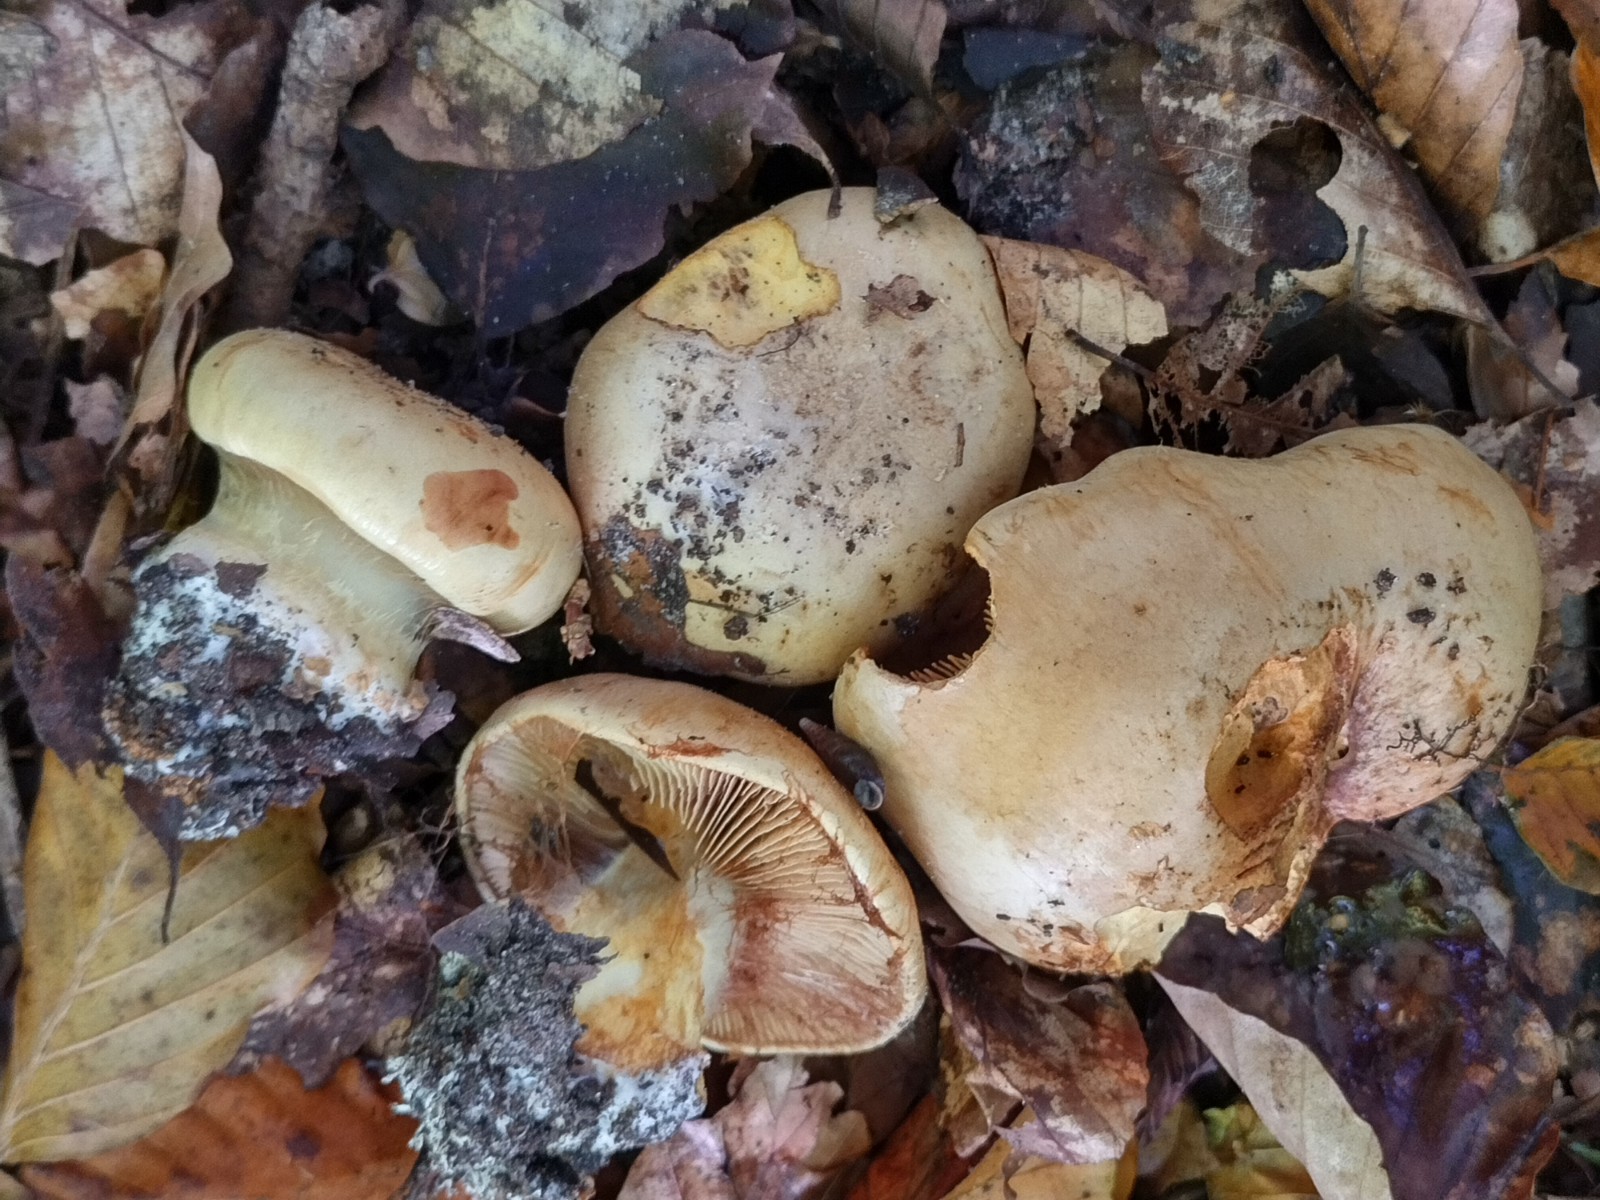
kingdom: Fungi
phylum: Basidiomycota
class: Agaricomycetes
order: Agaricales
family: Cortinariaceae
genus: Calonarius
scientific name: Calonarius humolens
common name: radise-slørhat
